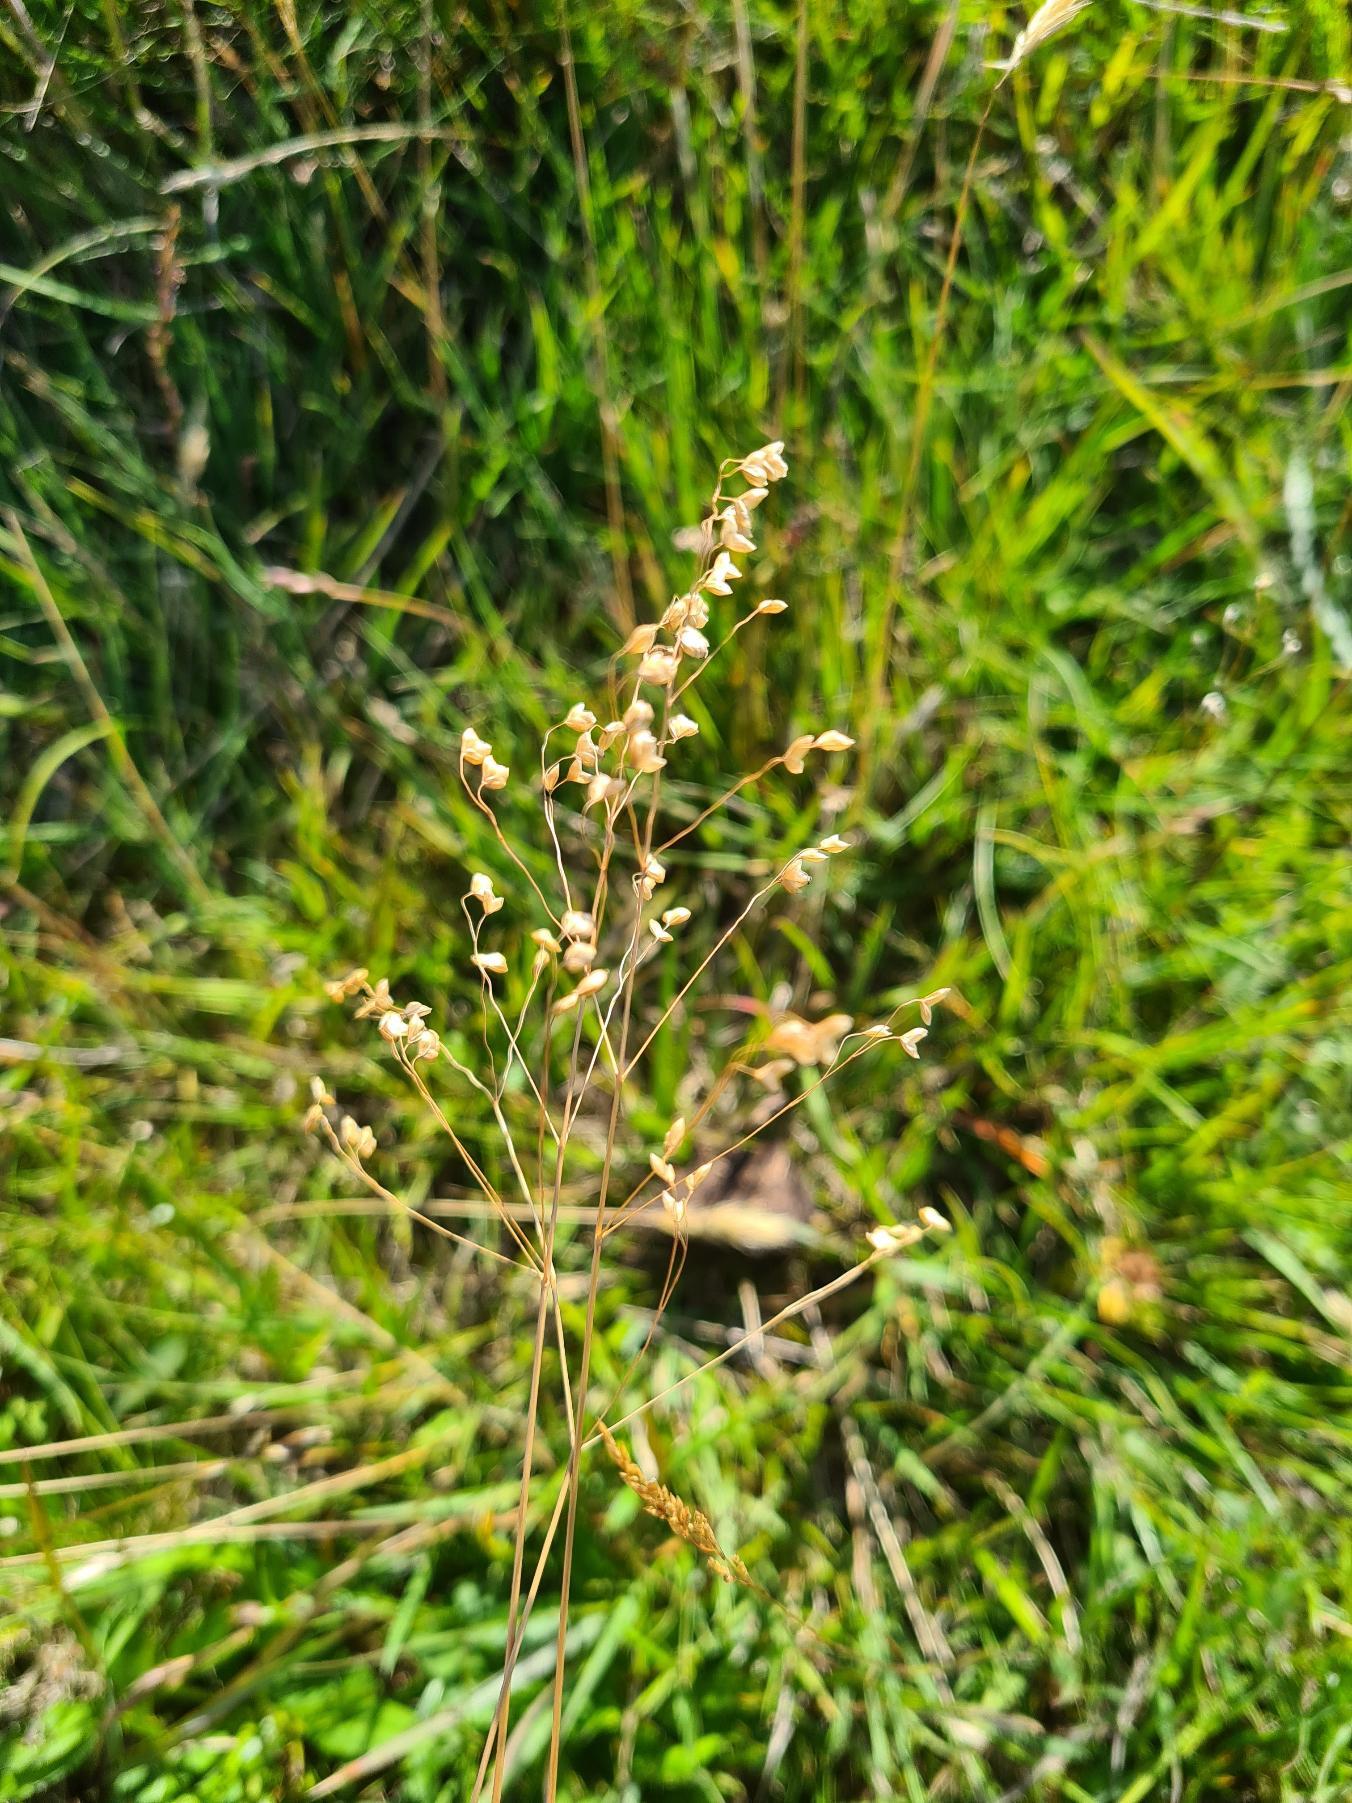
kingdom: Plantae
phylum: Tracheophyta
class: Liliopsida
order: Poales
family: Poaceae
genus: Briza
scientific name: Briza media
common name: Hjertegræs
